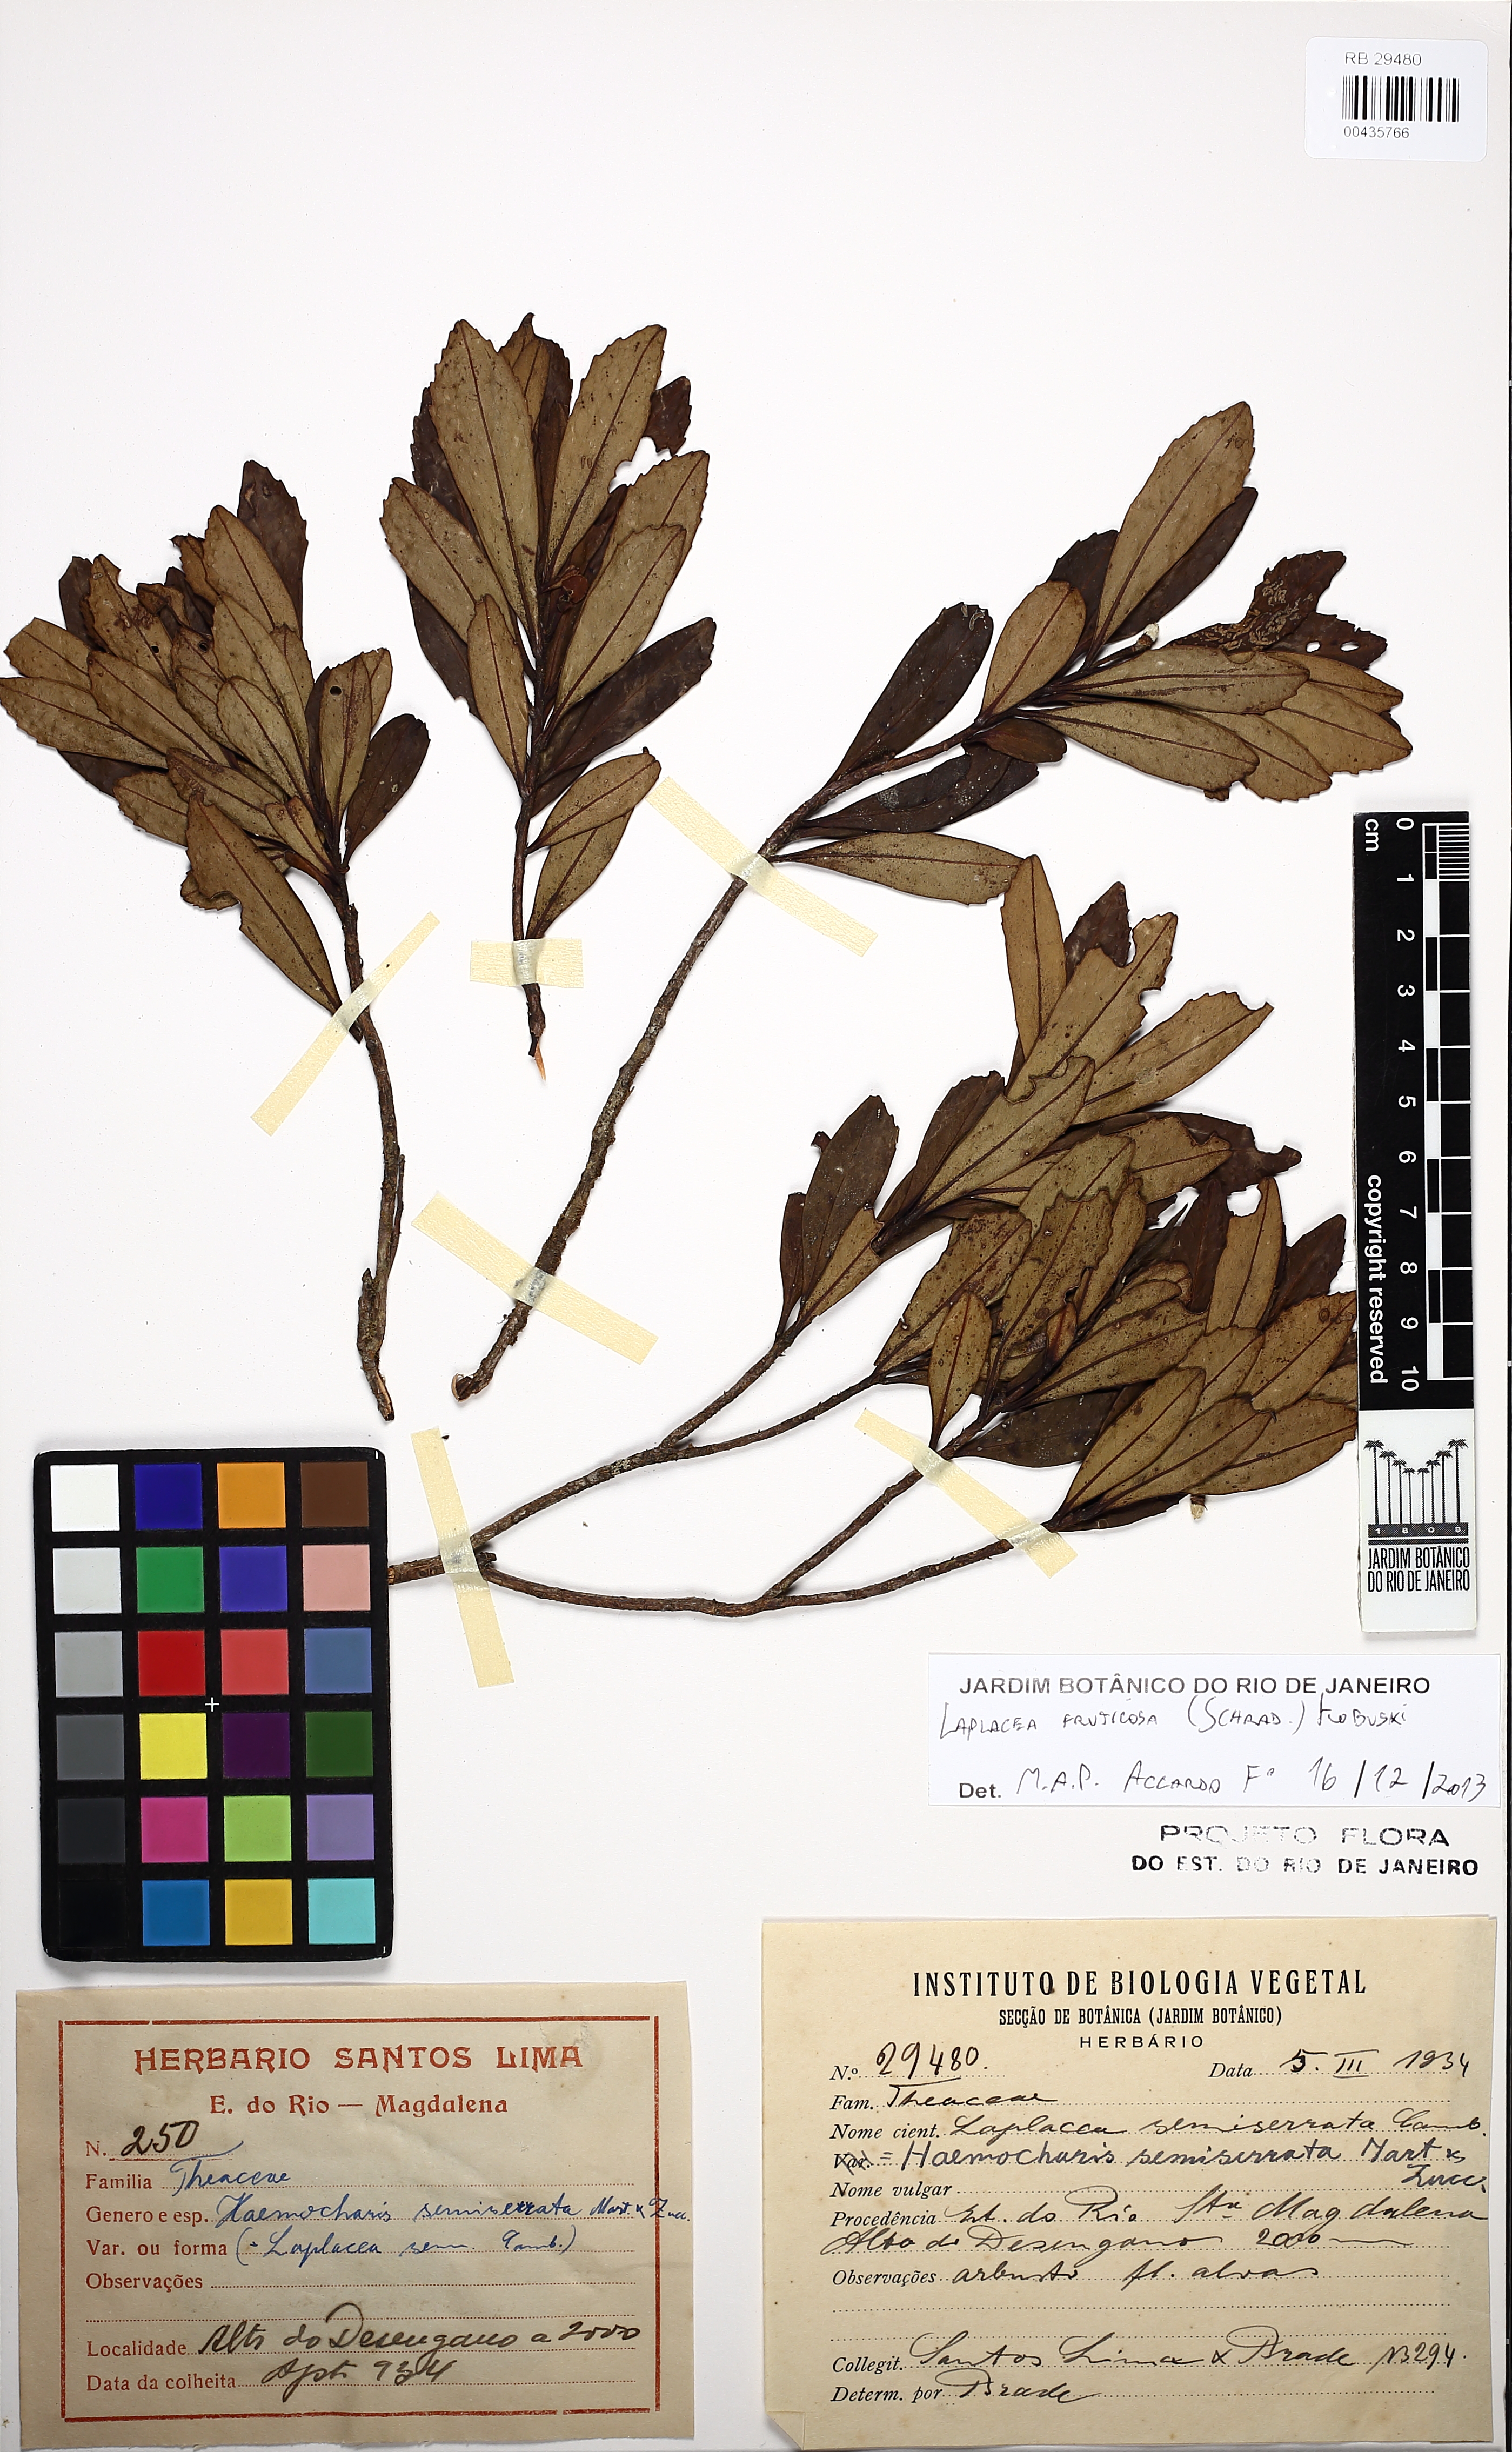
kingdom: Plantae
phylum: Tracheophyta
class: Magnoliopsida
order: Ericales
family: Theaceae
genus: Gordonia
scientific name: Gordonia fruticosa
